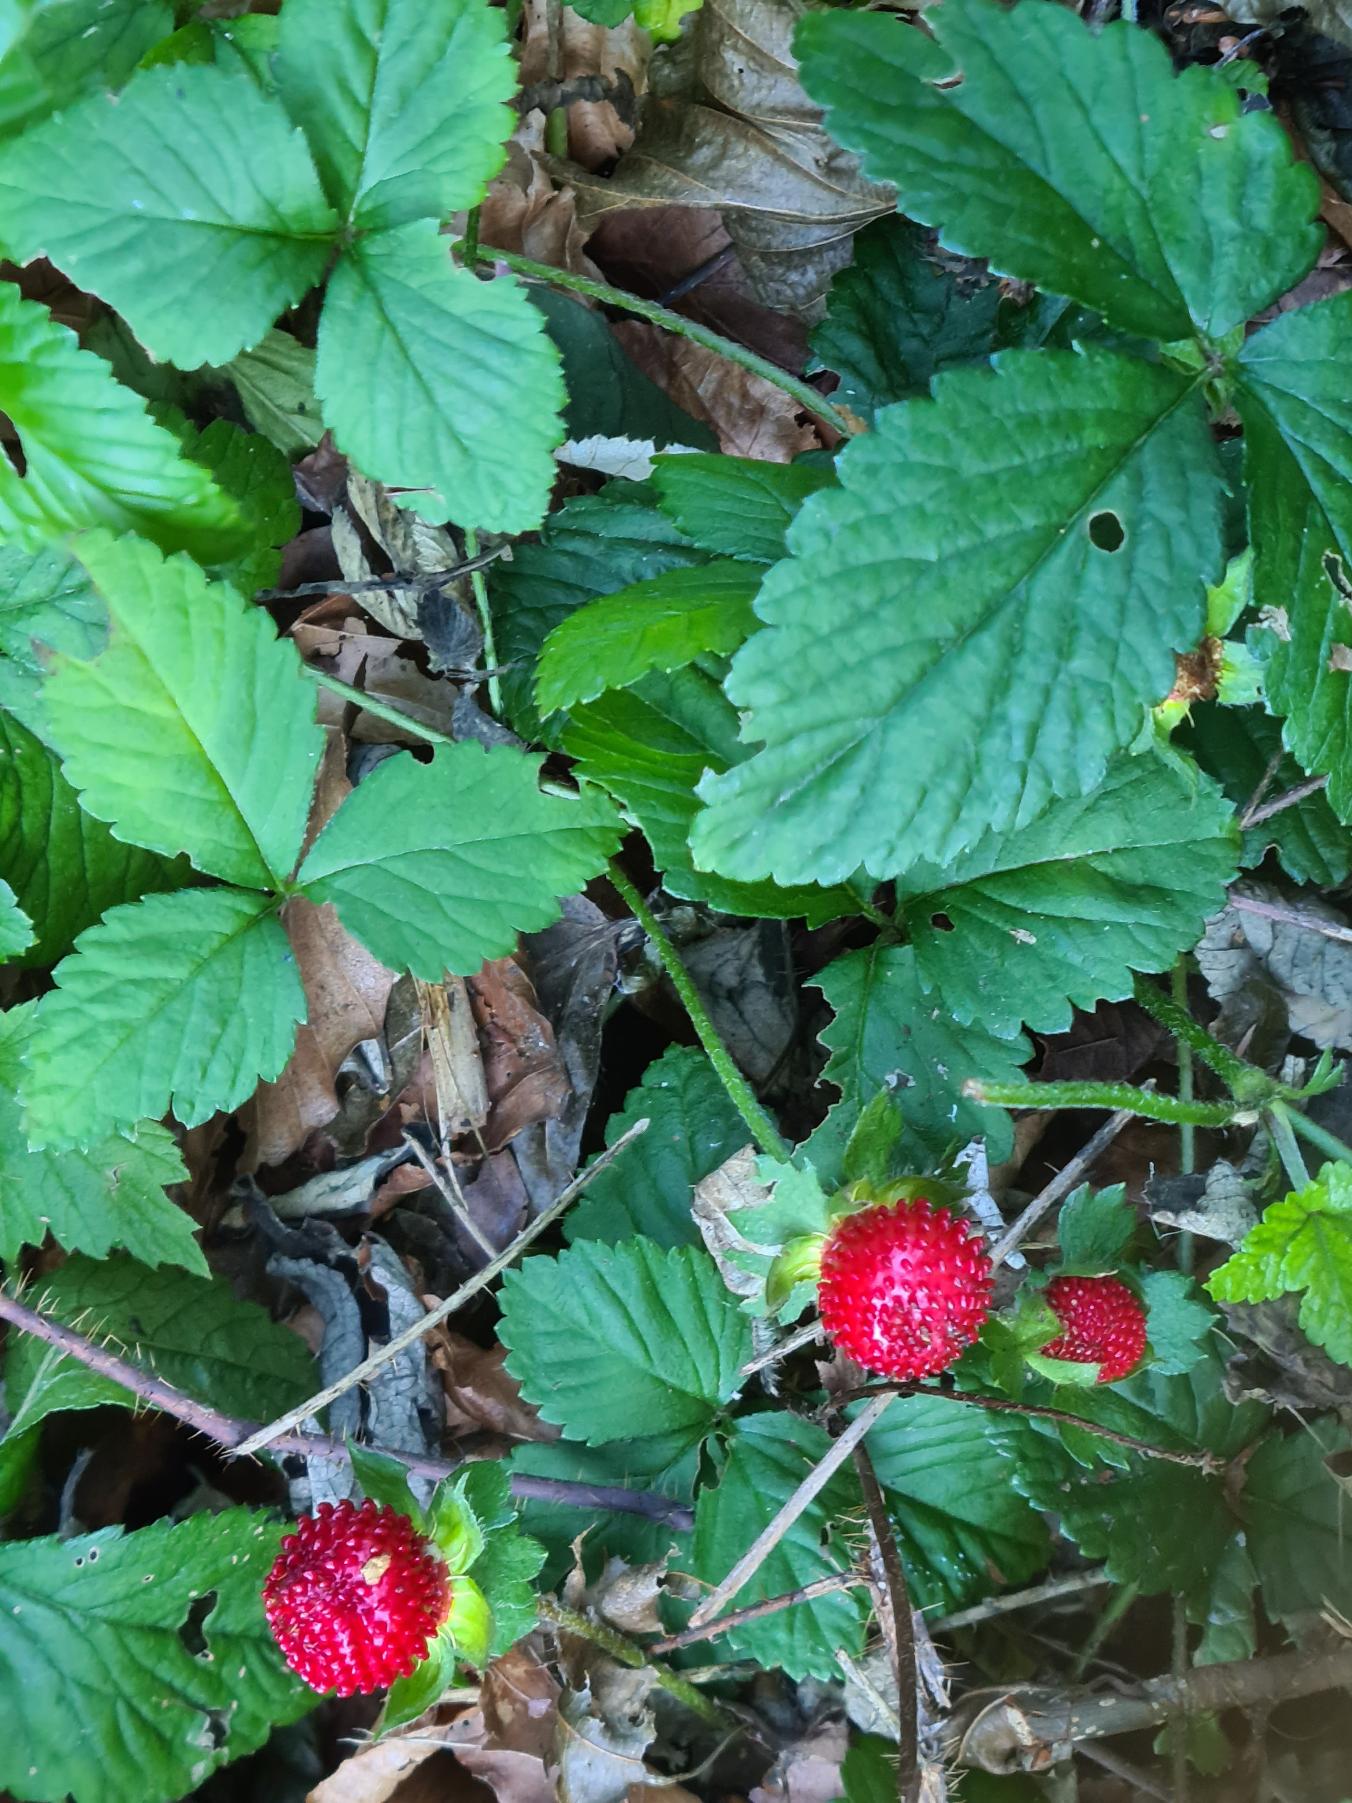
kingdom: Plantae
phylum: Tracheophyta
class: Magnoliopsida
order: Rosales
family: Rosaceae
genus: Potentilla
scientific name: Potentilla indica
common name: Indisk jordbær
